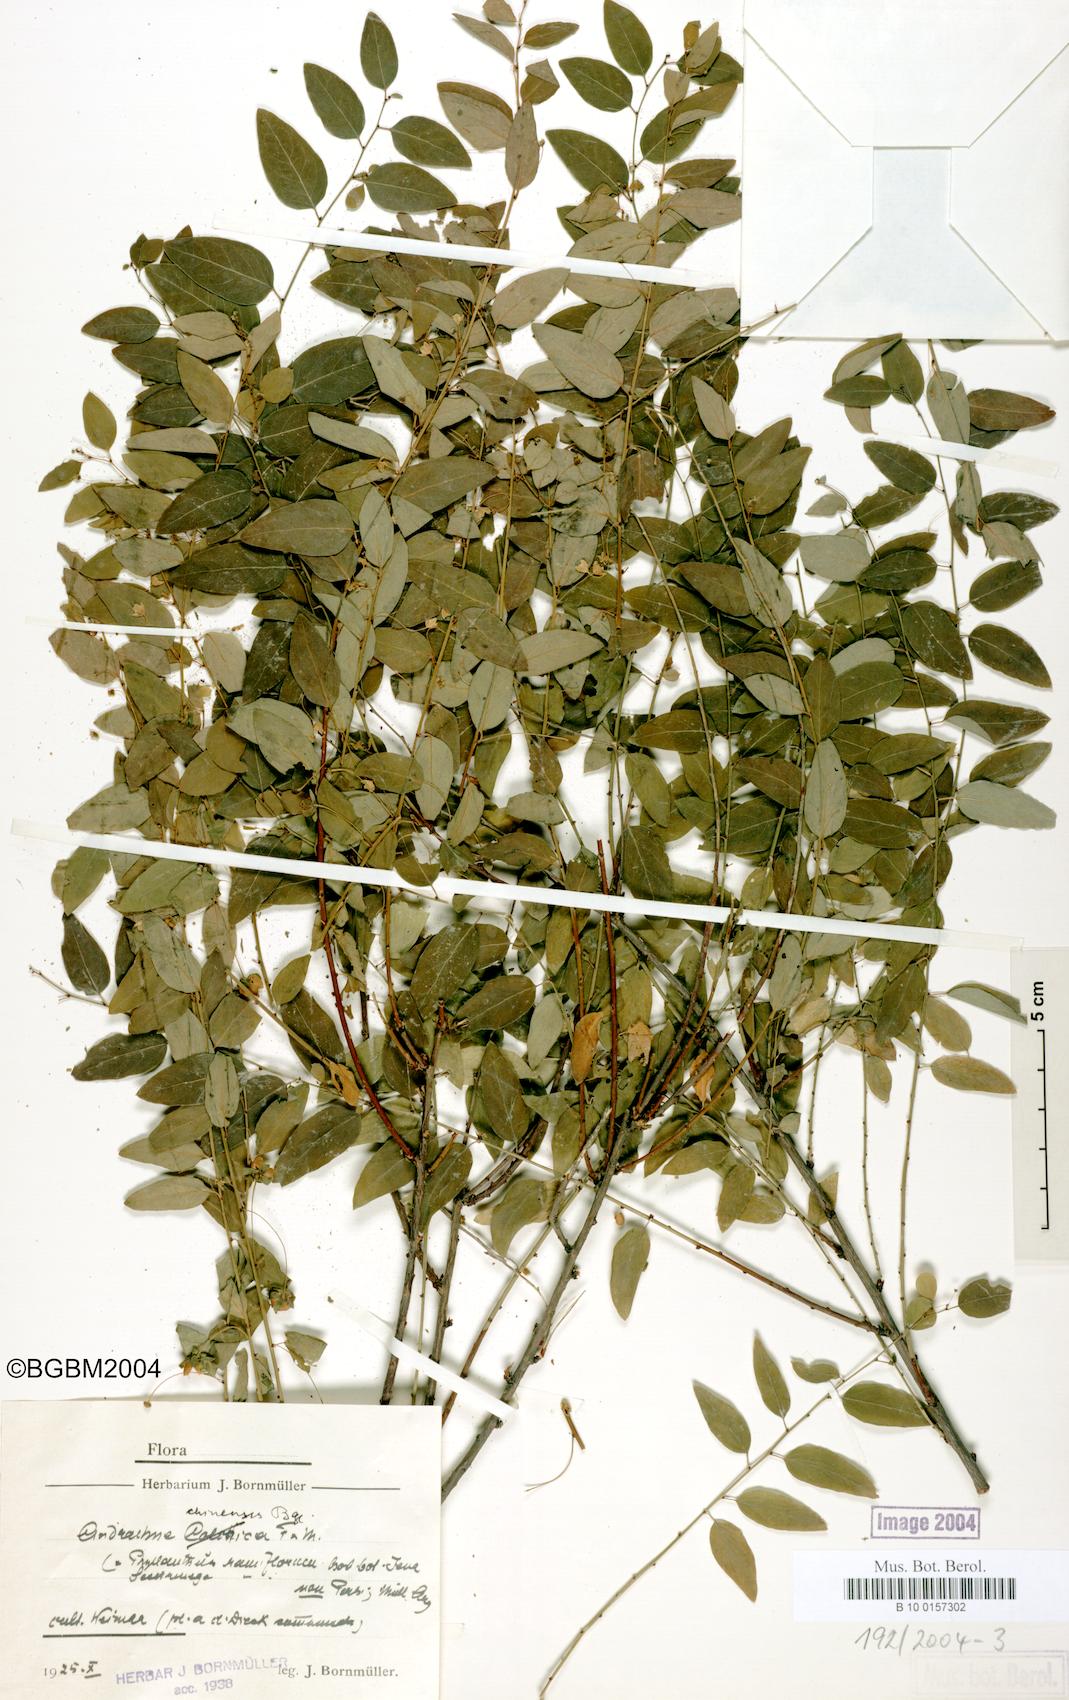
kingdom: Plantae
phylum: Tracheophyta
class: Magnoliopsida
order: Malpighiales
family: Phyllanthaceae
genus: Leptopus
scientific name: Leptopus chinensis
